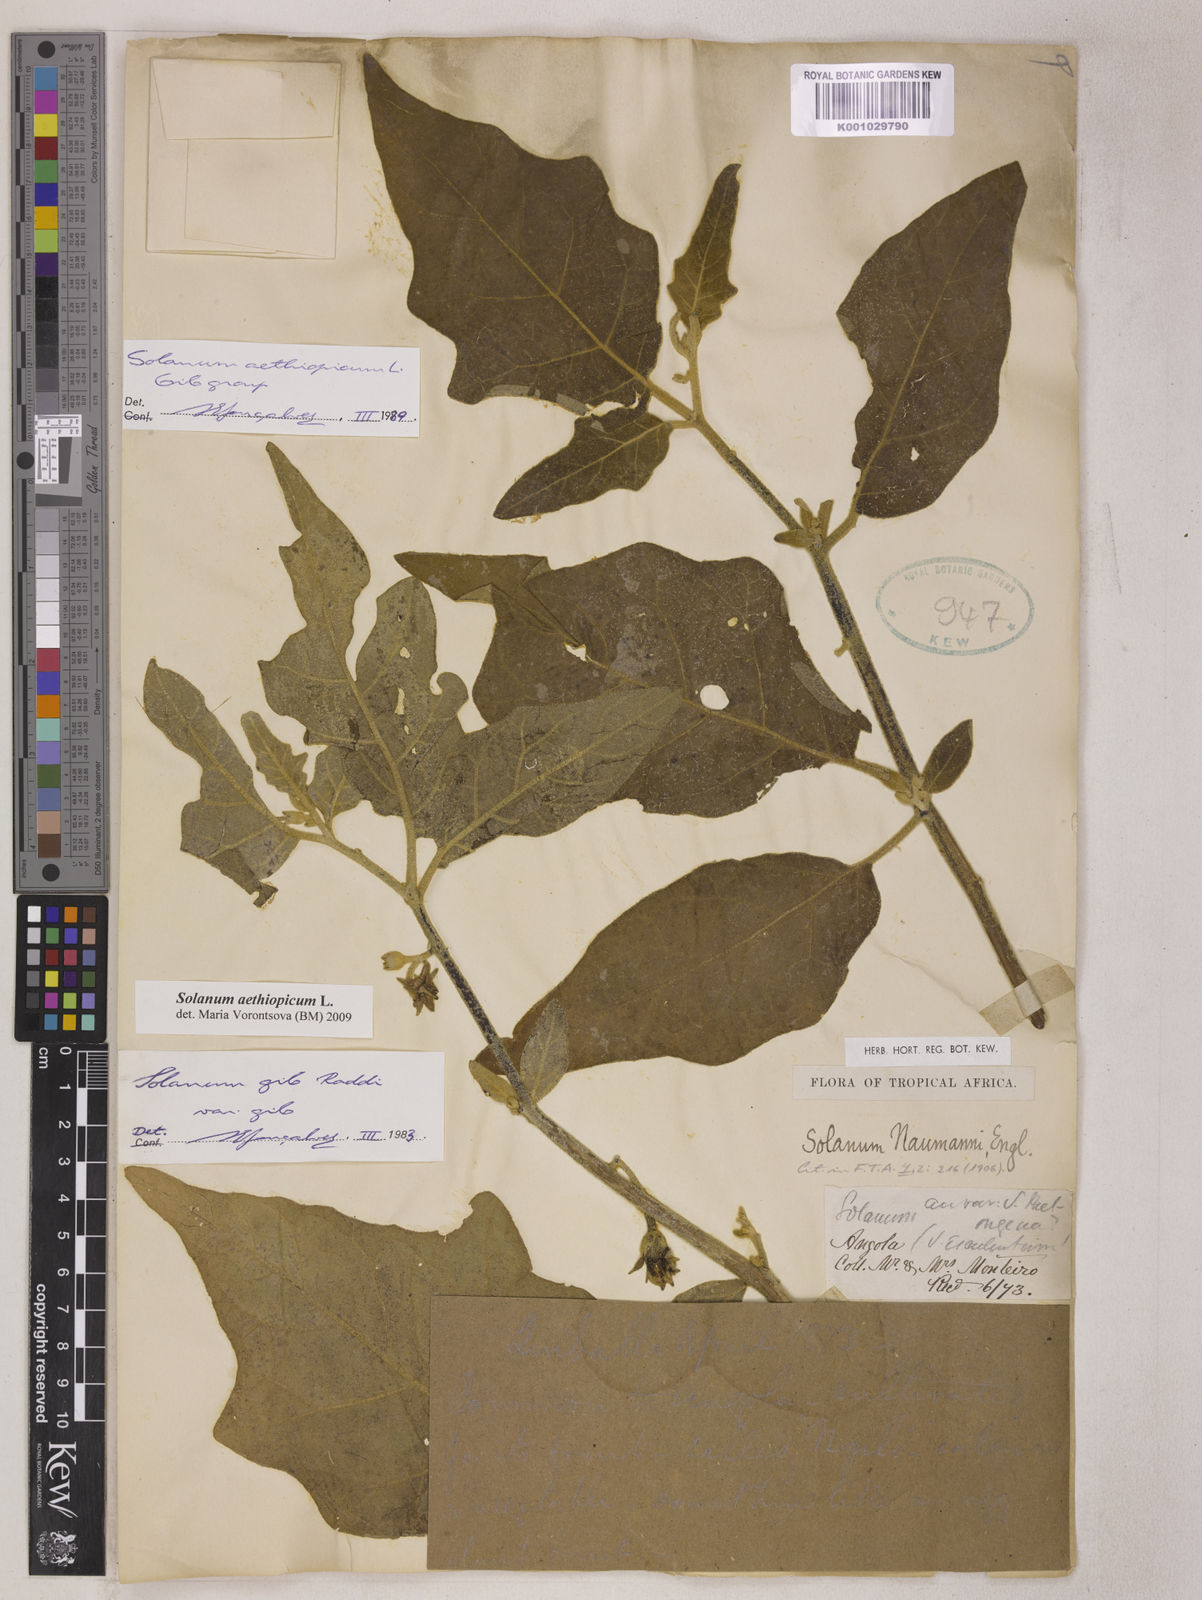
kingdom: Plantae
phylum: Tracheophyta
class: Magnoliopsida
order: Solanales
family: Solanaceae
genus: Solanum
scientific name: Solanum aethiopicum
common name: Gilo
